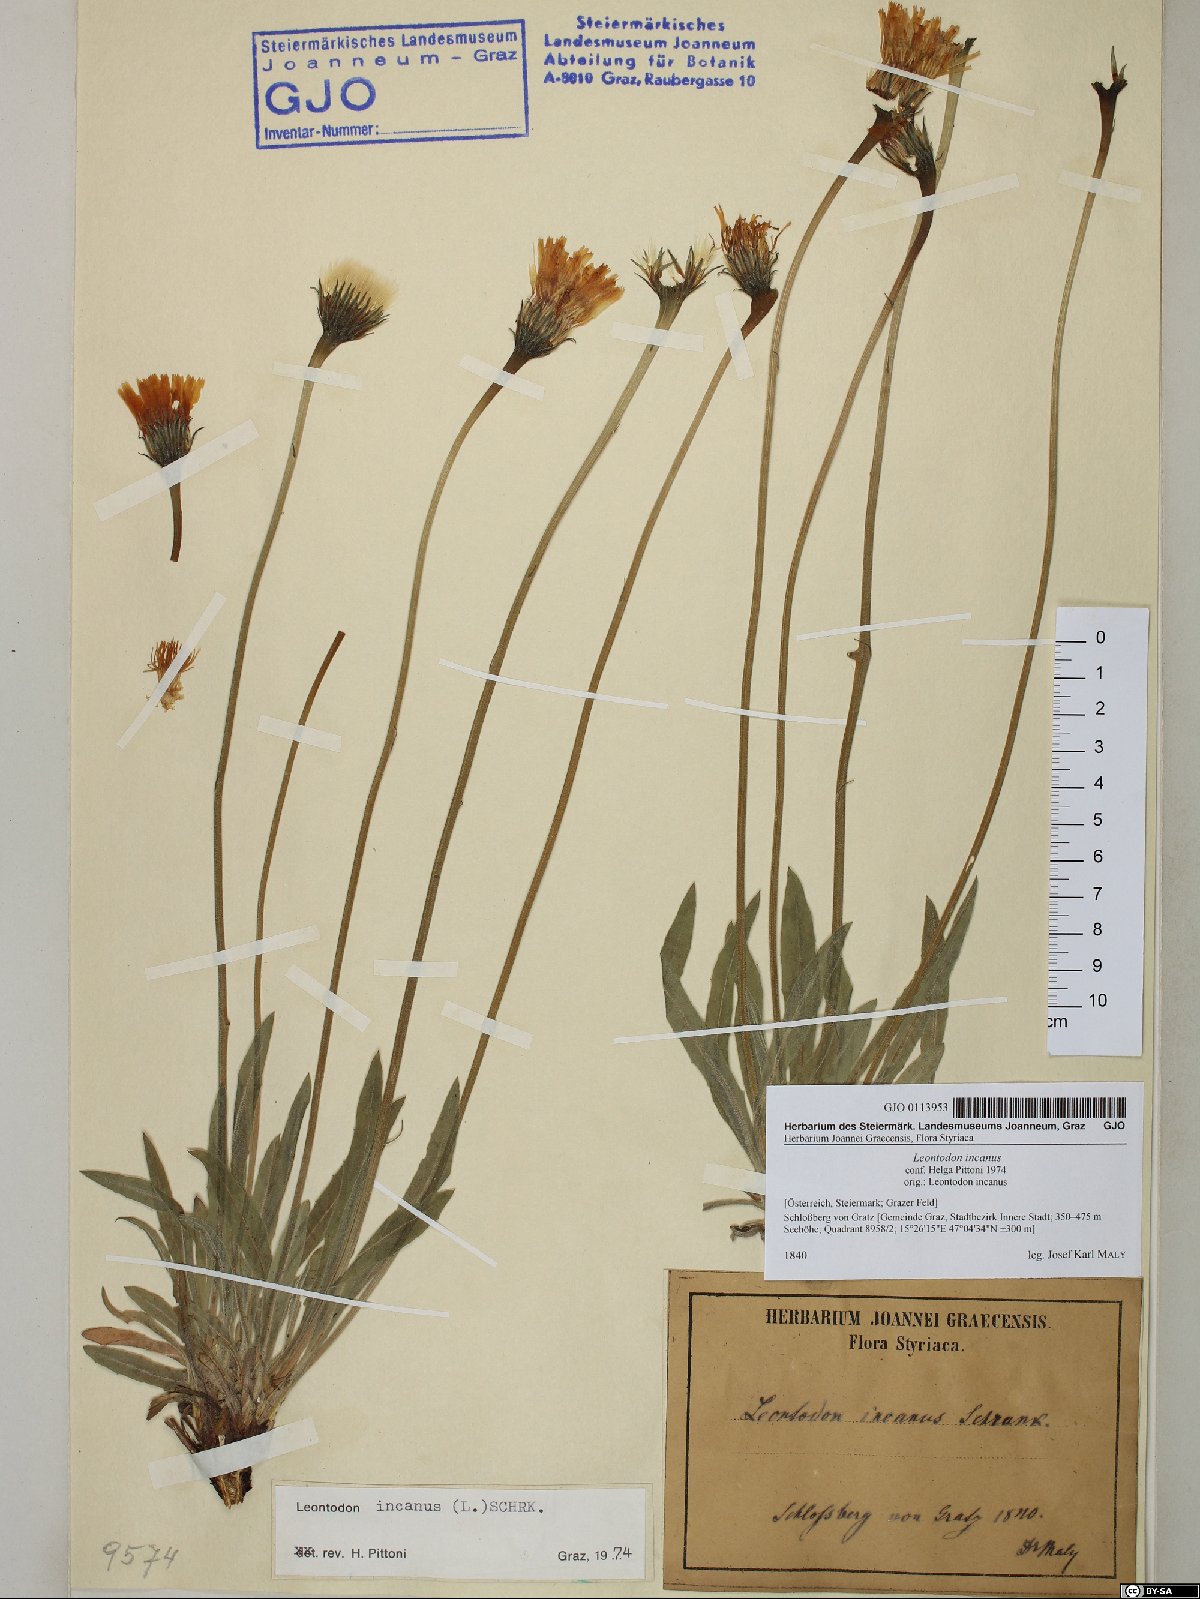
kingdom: Plantae
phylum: Tracheophyta
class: Magnoliopsida
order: Asterales
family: Asteraceae
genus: Leontodon
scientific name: Leontodon incanus
